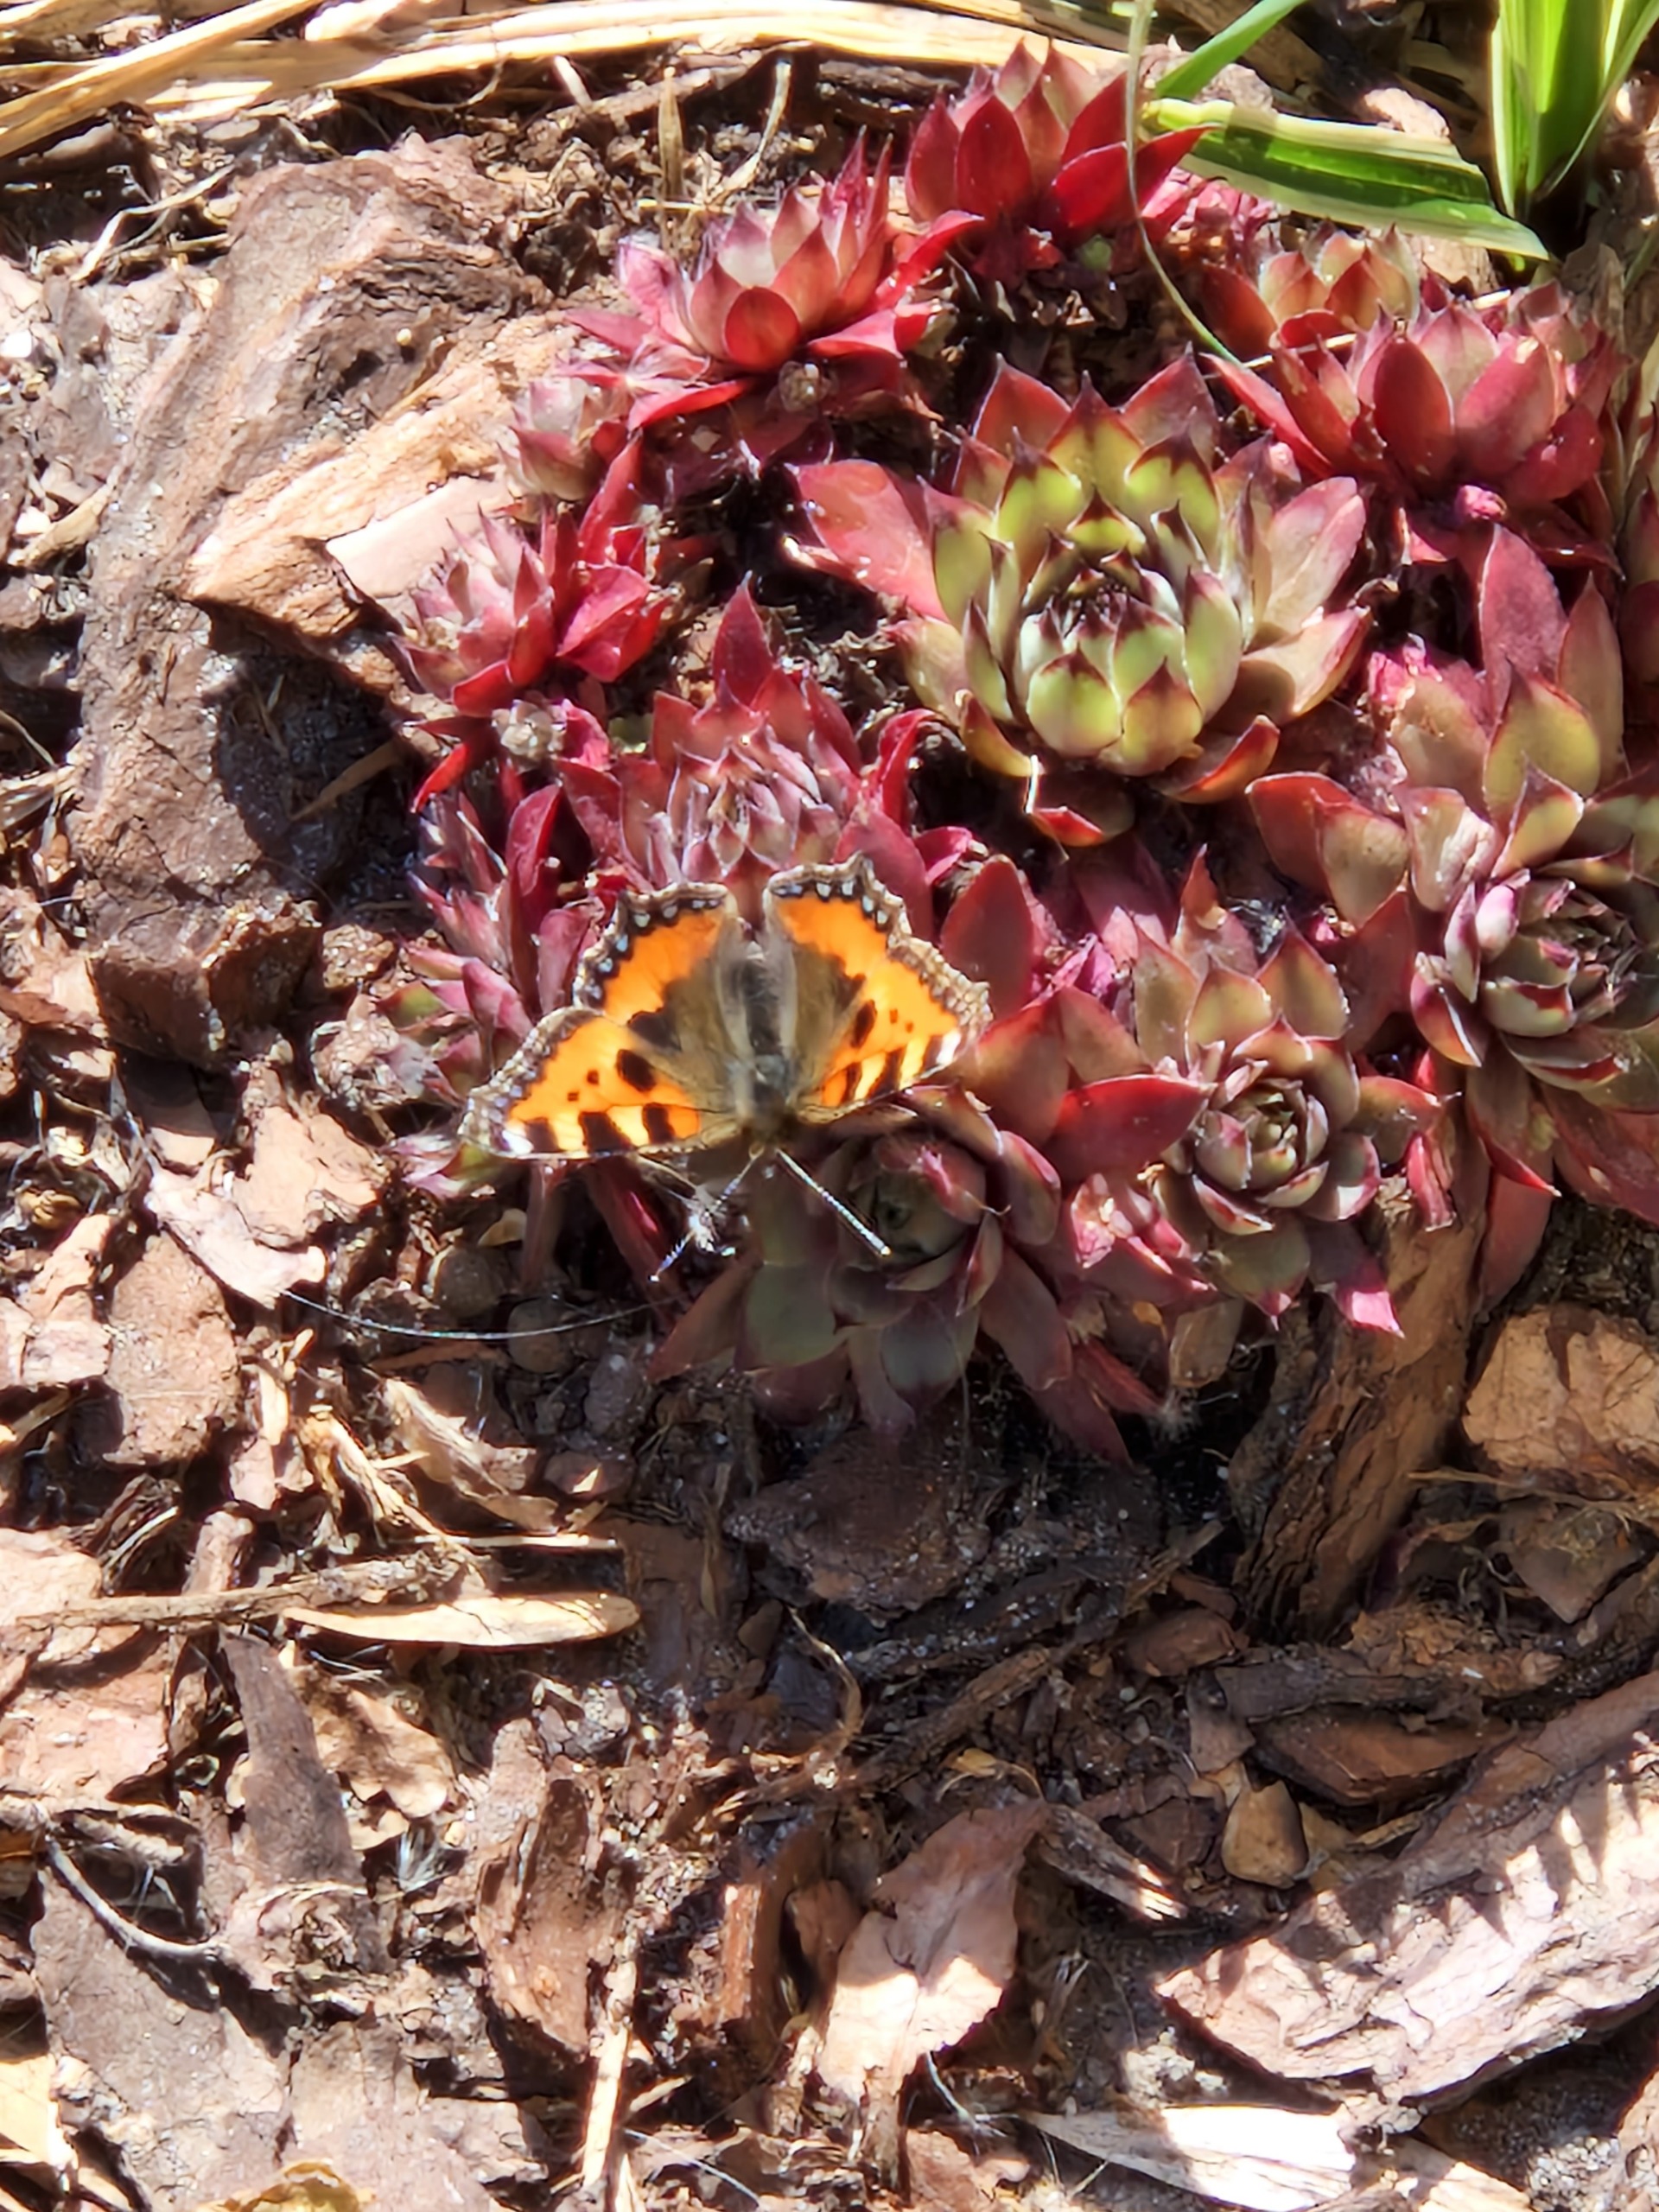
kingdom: Animalia
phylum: Arthropoda
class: Insecta
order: Lepidoptera
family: Nymphalidae
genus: Aglais
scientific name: Aglais urticae
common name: Nældens takvinge
